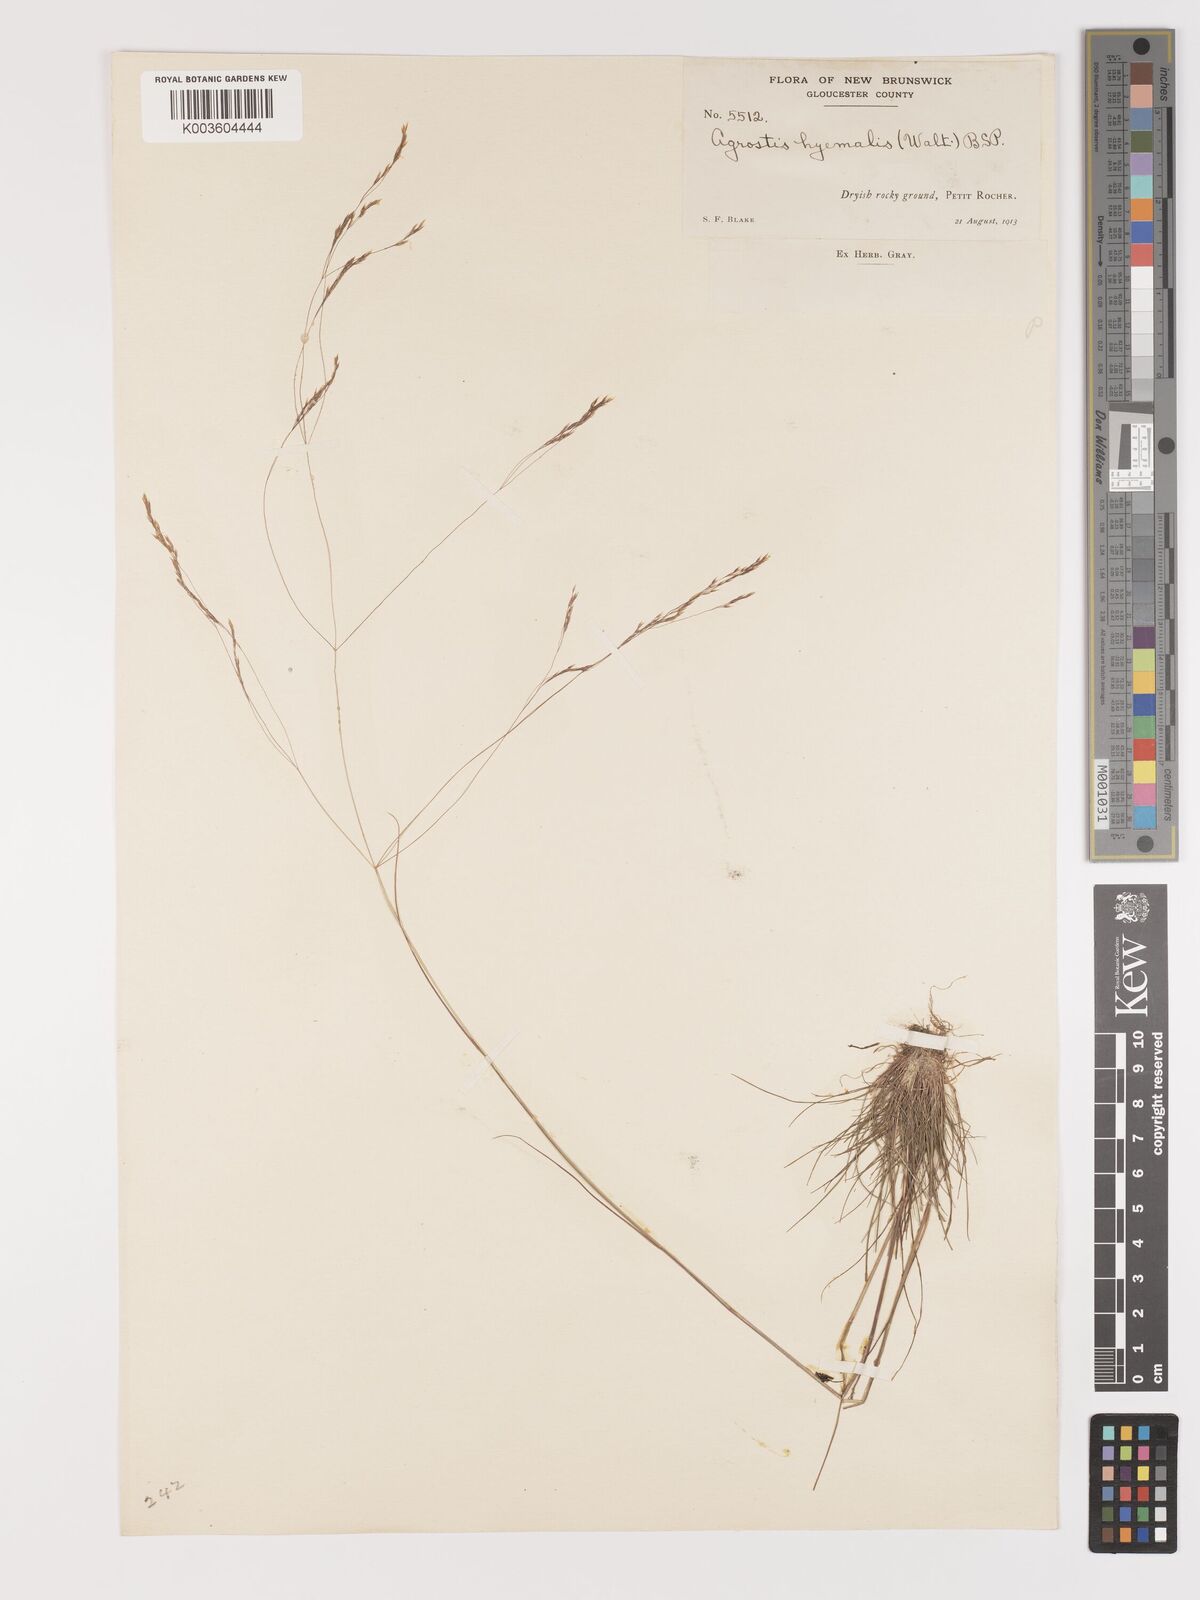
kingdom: Plantae
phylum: Tracheophyta
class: Liliopsida
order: Poales
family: Poaceae
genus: Agrostis
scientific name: Agrostis hyemalis
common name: Small bent
